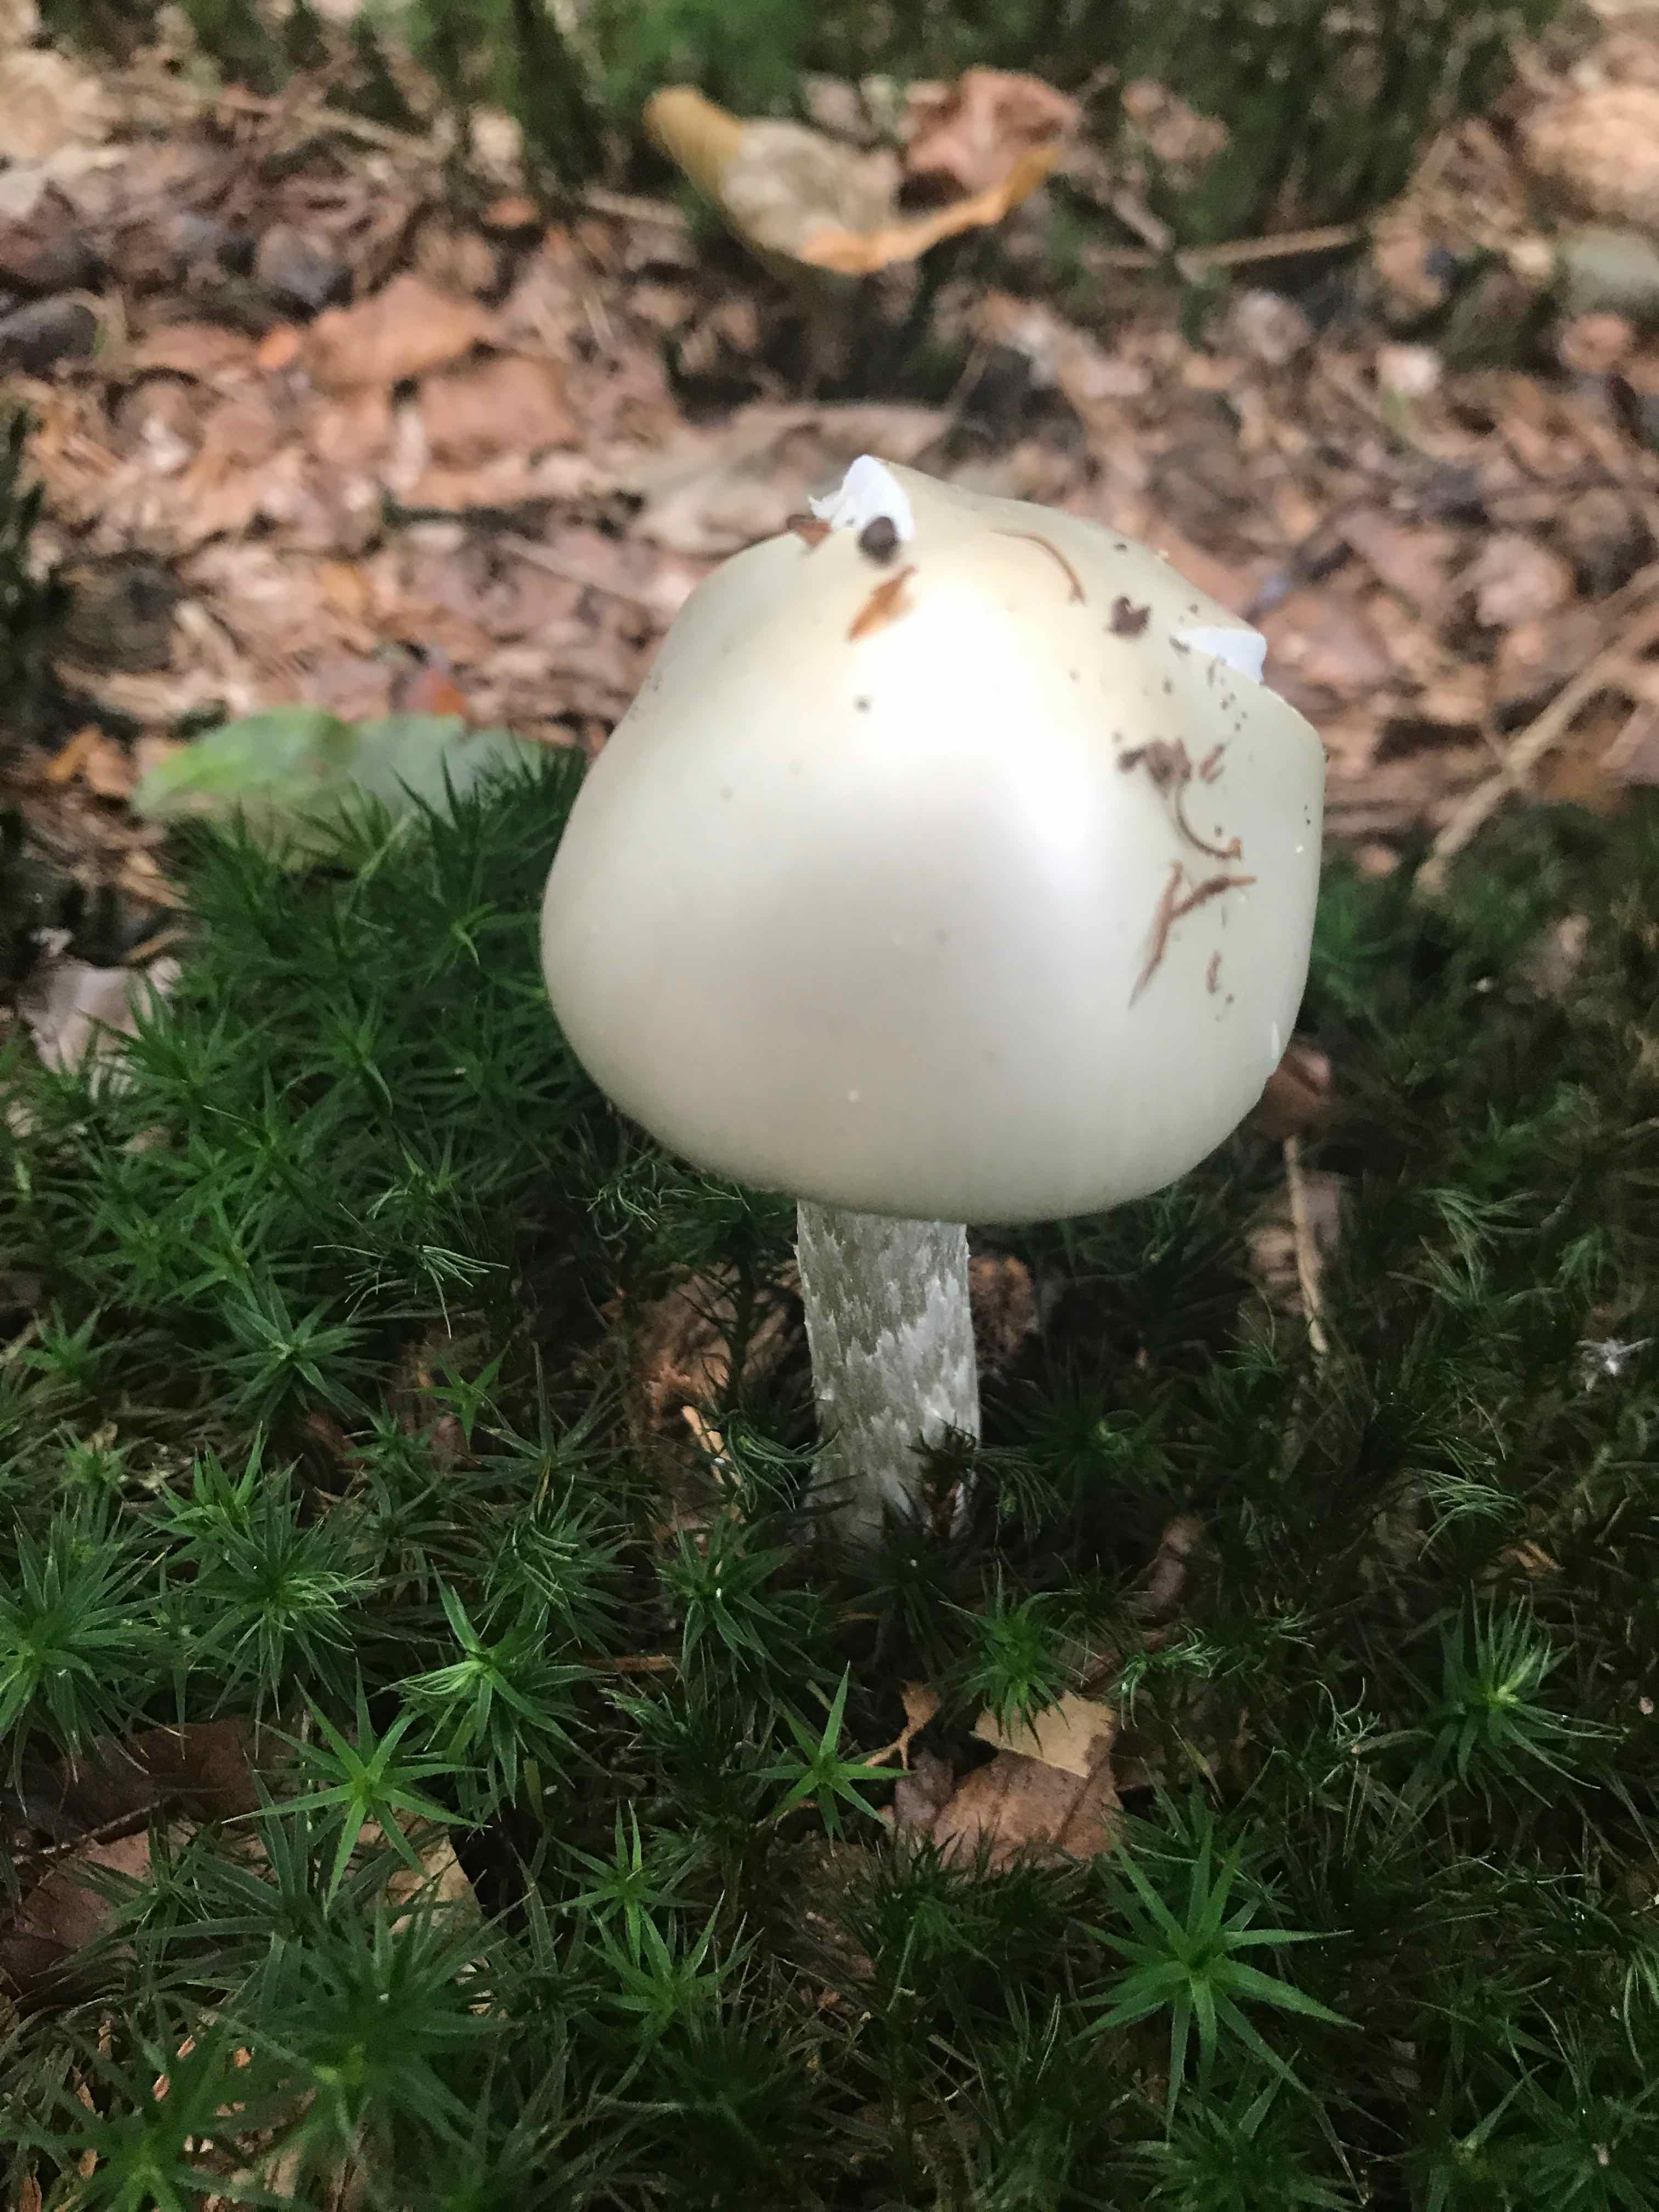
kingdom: Fungi
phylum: Basidiomycota
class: Agaricomycetes
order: Agaricales
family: Amanitaceae
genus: Amanita
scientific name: Amanita virosa
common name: snehvid fluesvamp
